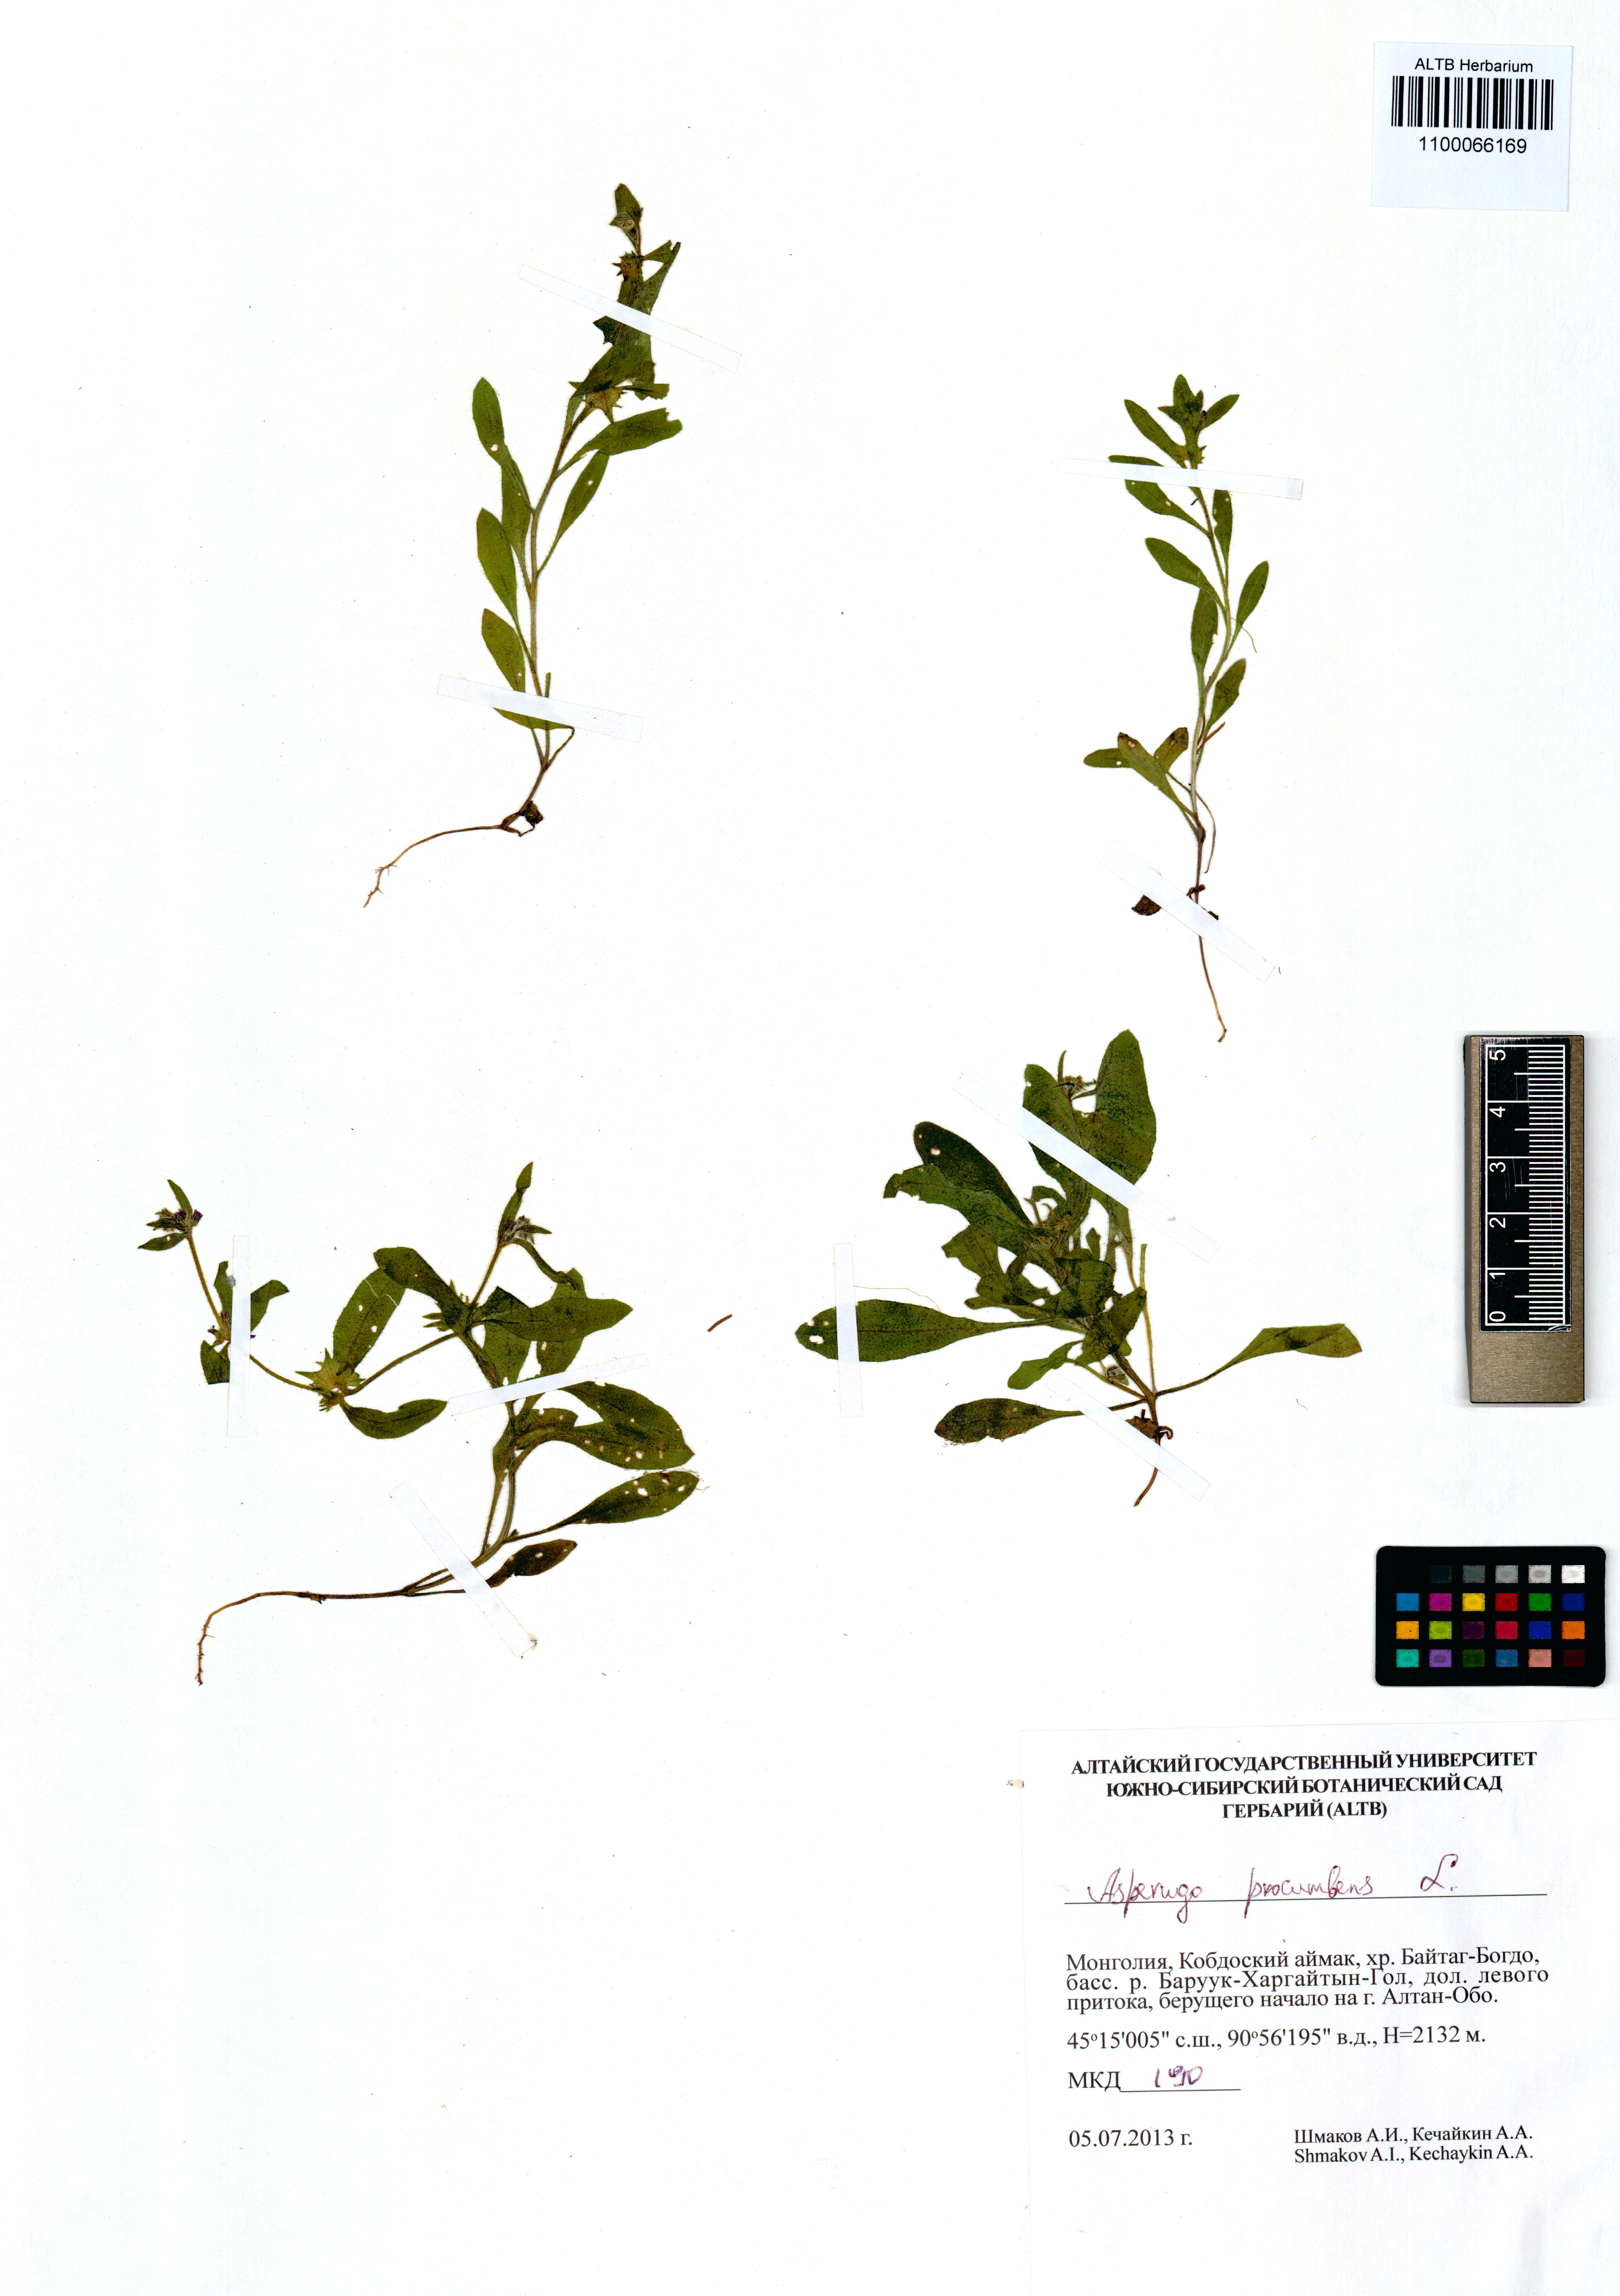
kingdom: Plantae
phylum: Tracheophyta
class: Magnoliopsida
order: Boraginales
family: Boraginaceae
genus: Asperugo
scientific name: Asperugo procumbens
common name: Madwort
